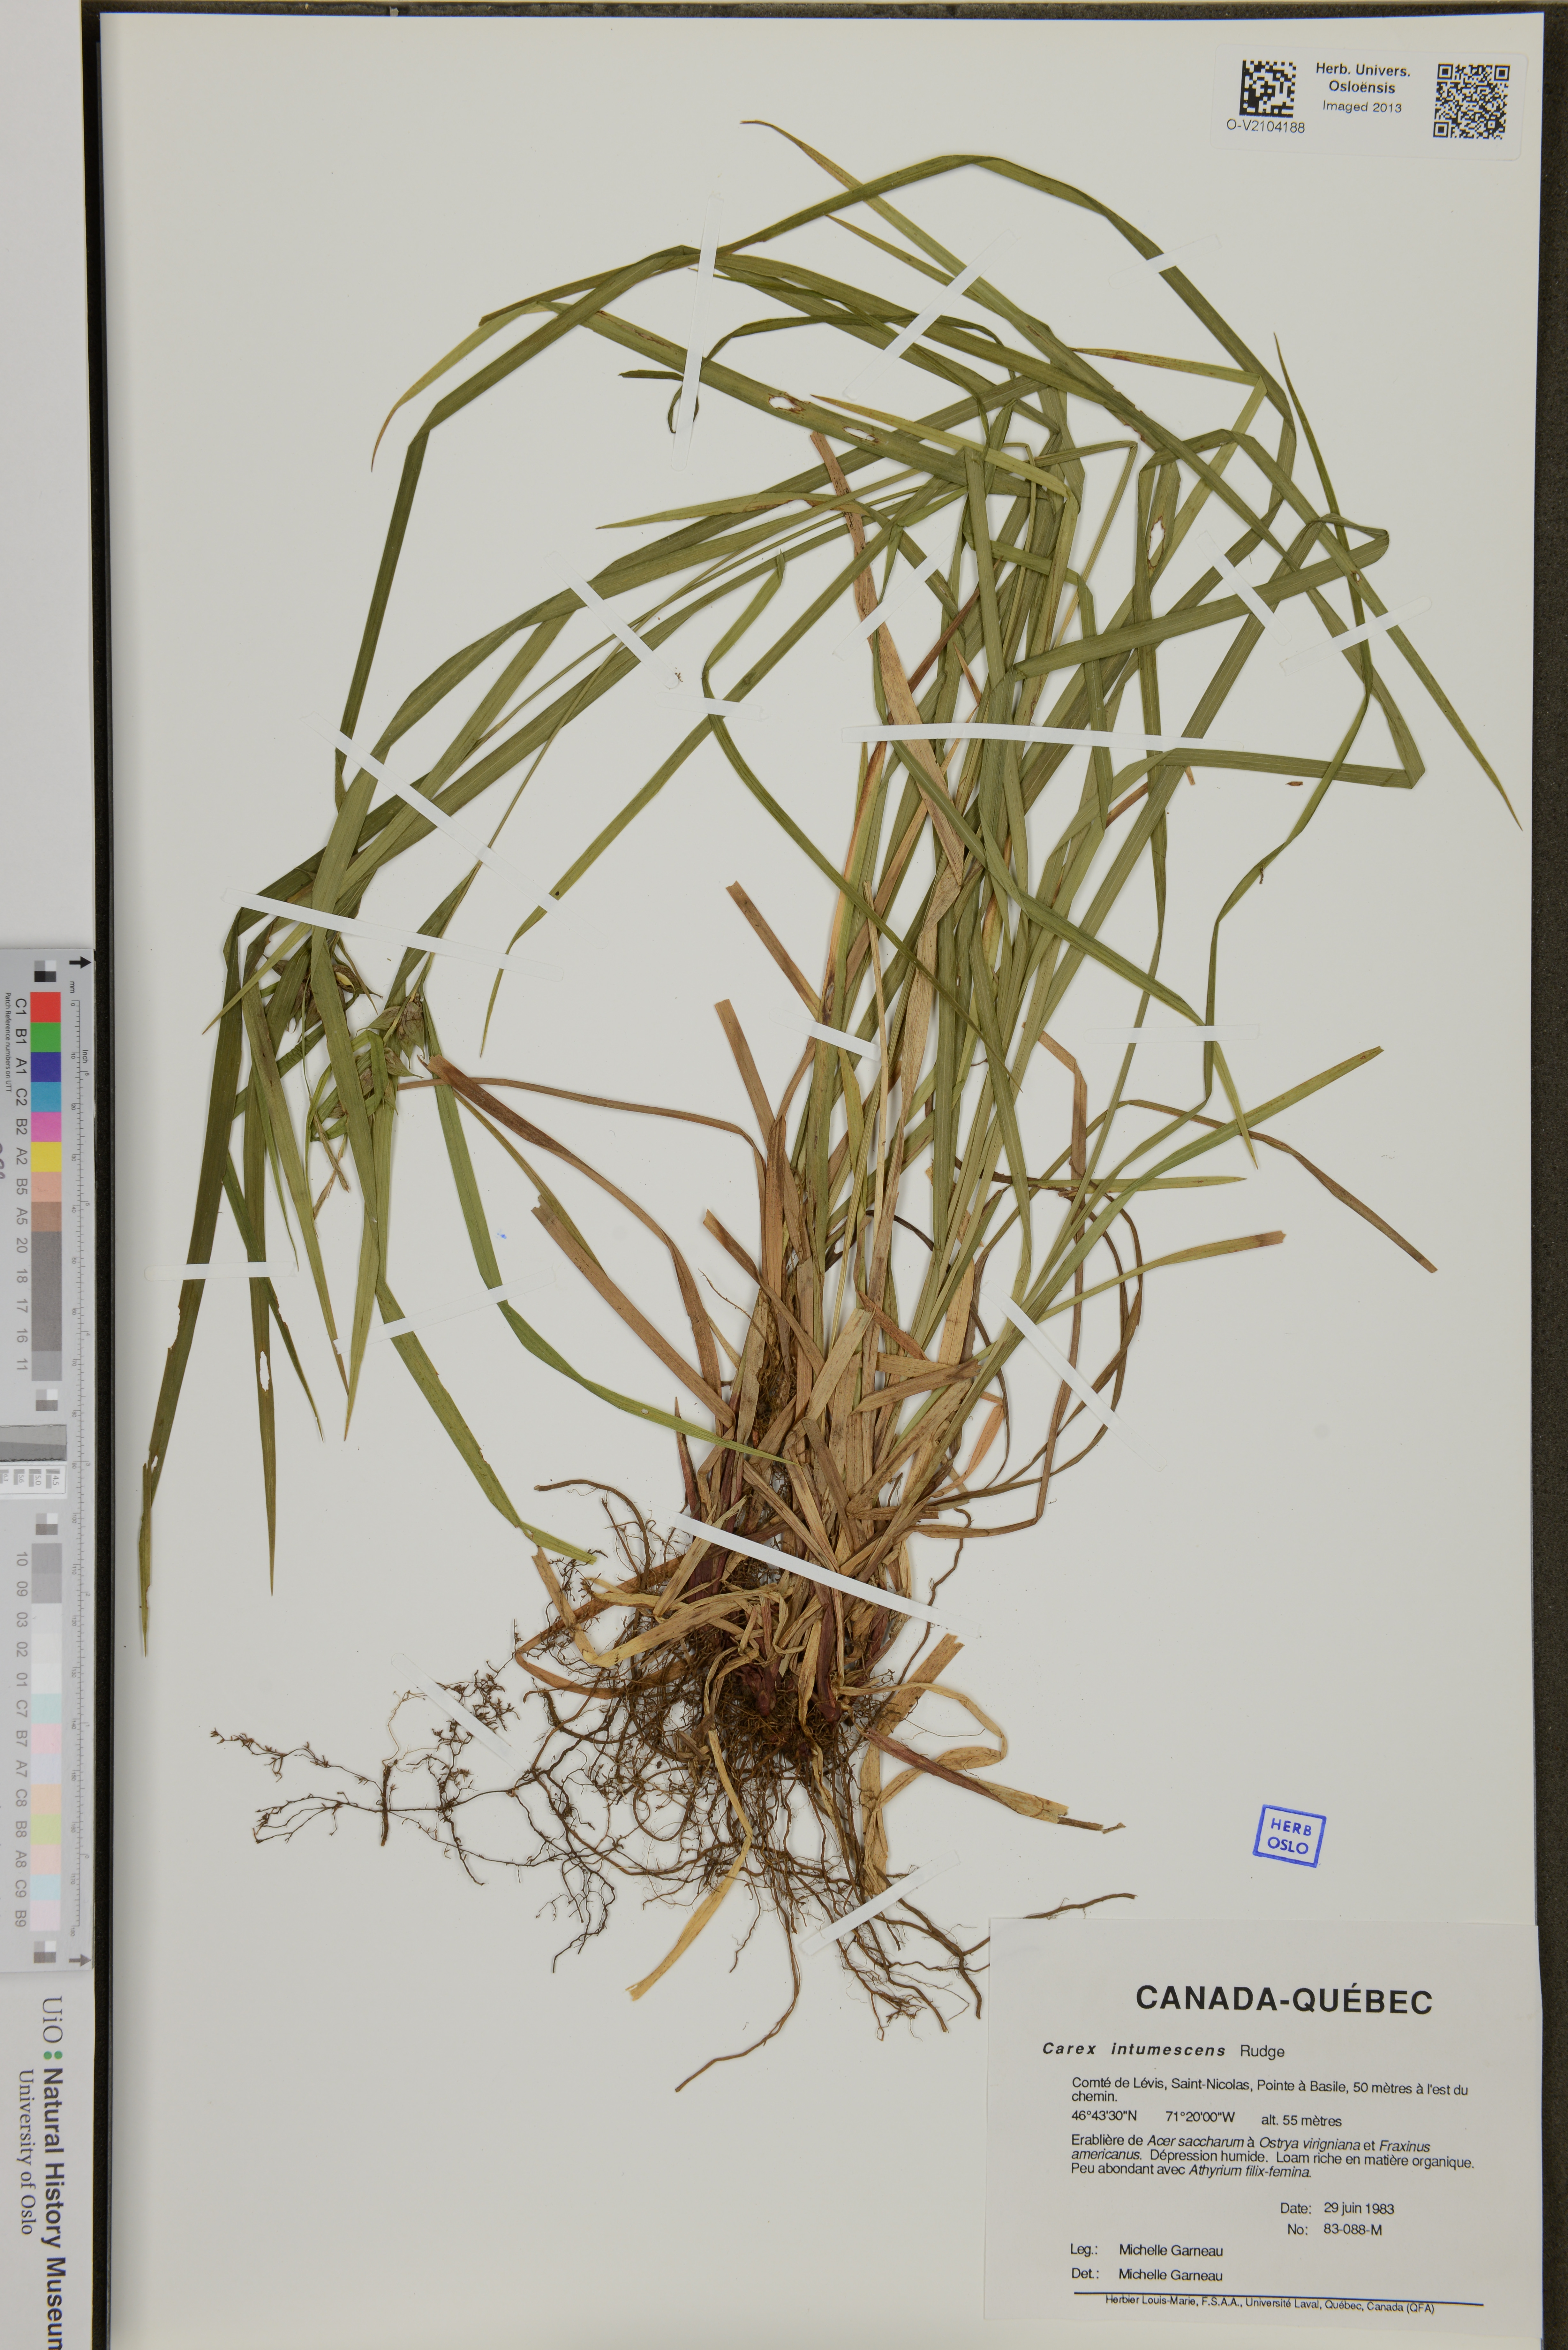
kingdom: Plantae
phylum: Tracheophyta
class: Liliopsida
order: Poales
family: Cyperaceae
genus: Carex
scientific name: Carex intumescens
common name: Greater bladder sedge
